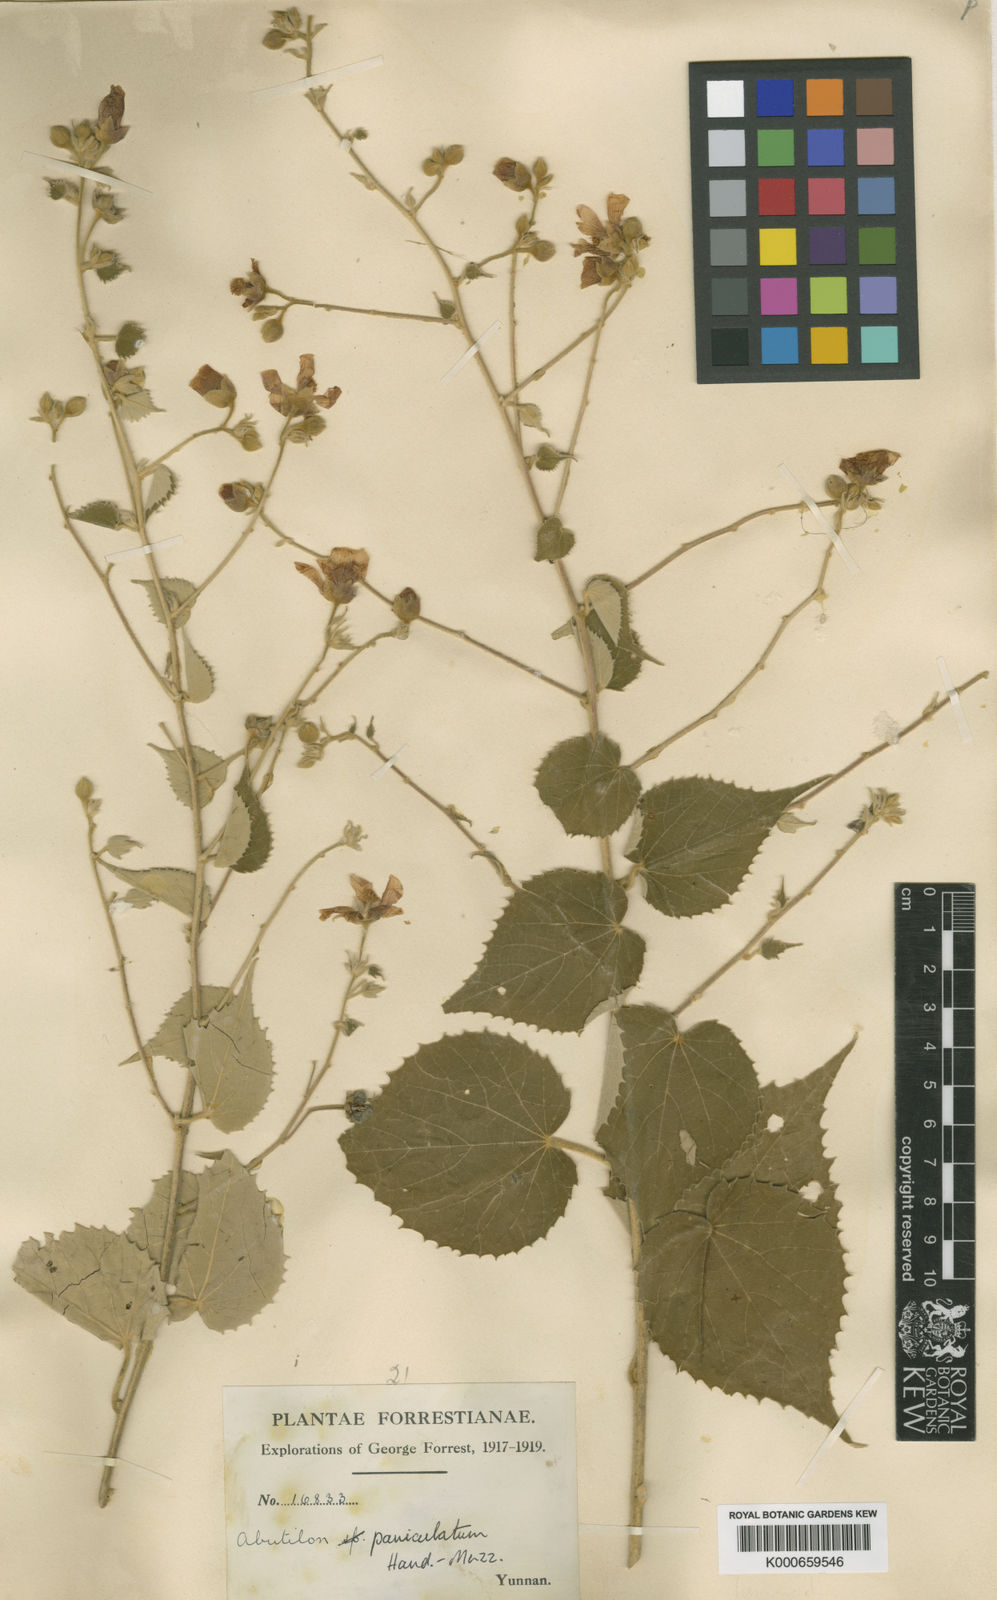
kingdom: Plantae
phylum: Tracheophyta
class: Magnoliopsida
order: Malvales
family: Malvaceae
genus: Abutilon
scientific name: Abutilon paniculatum
